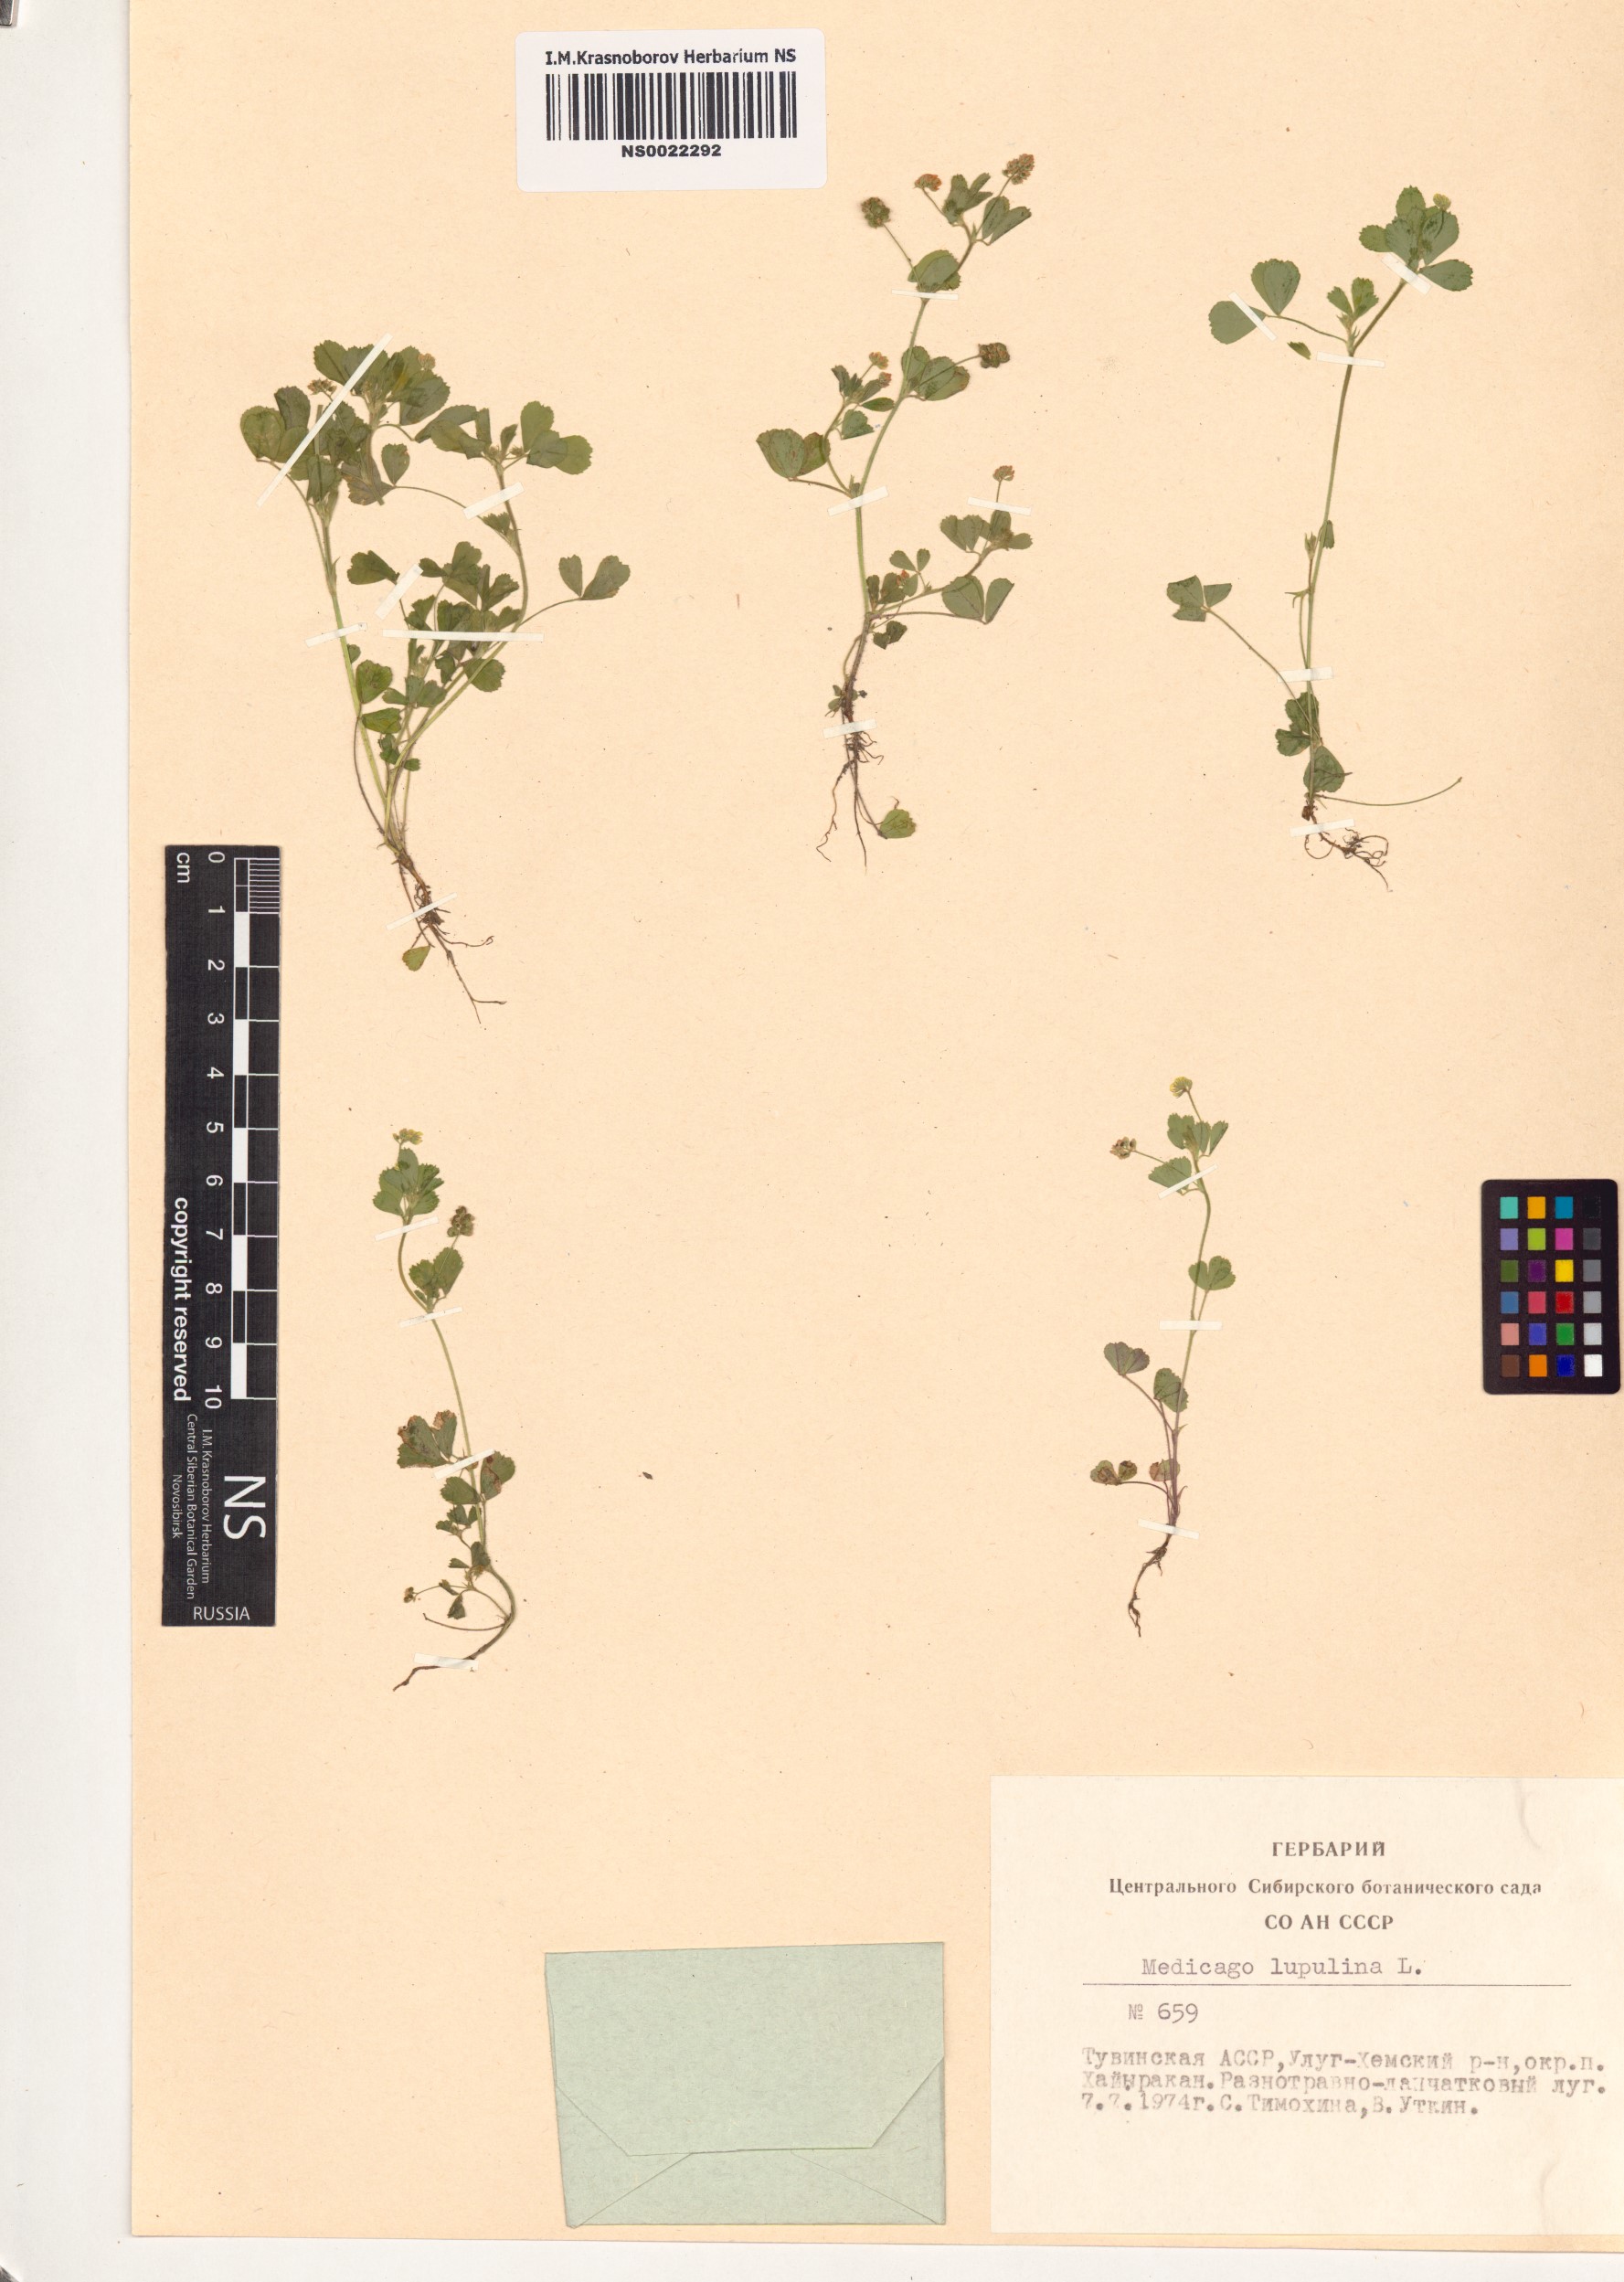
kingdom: Plantae
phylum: Tracheophyta
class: Magnoliopsida
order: Fabales
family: Fabaceae
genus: Medicago
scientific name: Medicago lupulina
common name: Black medick
